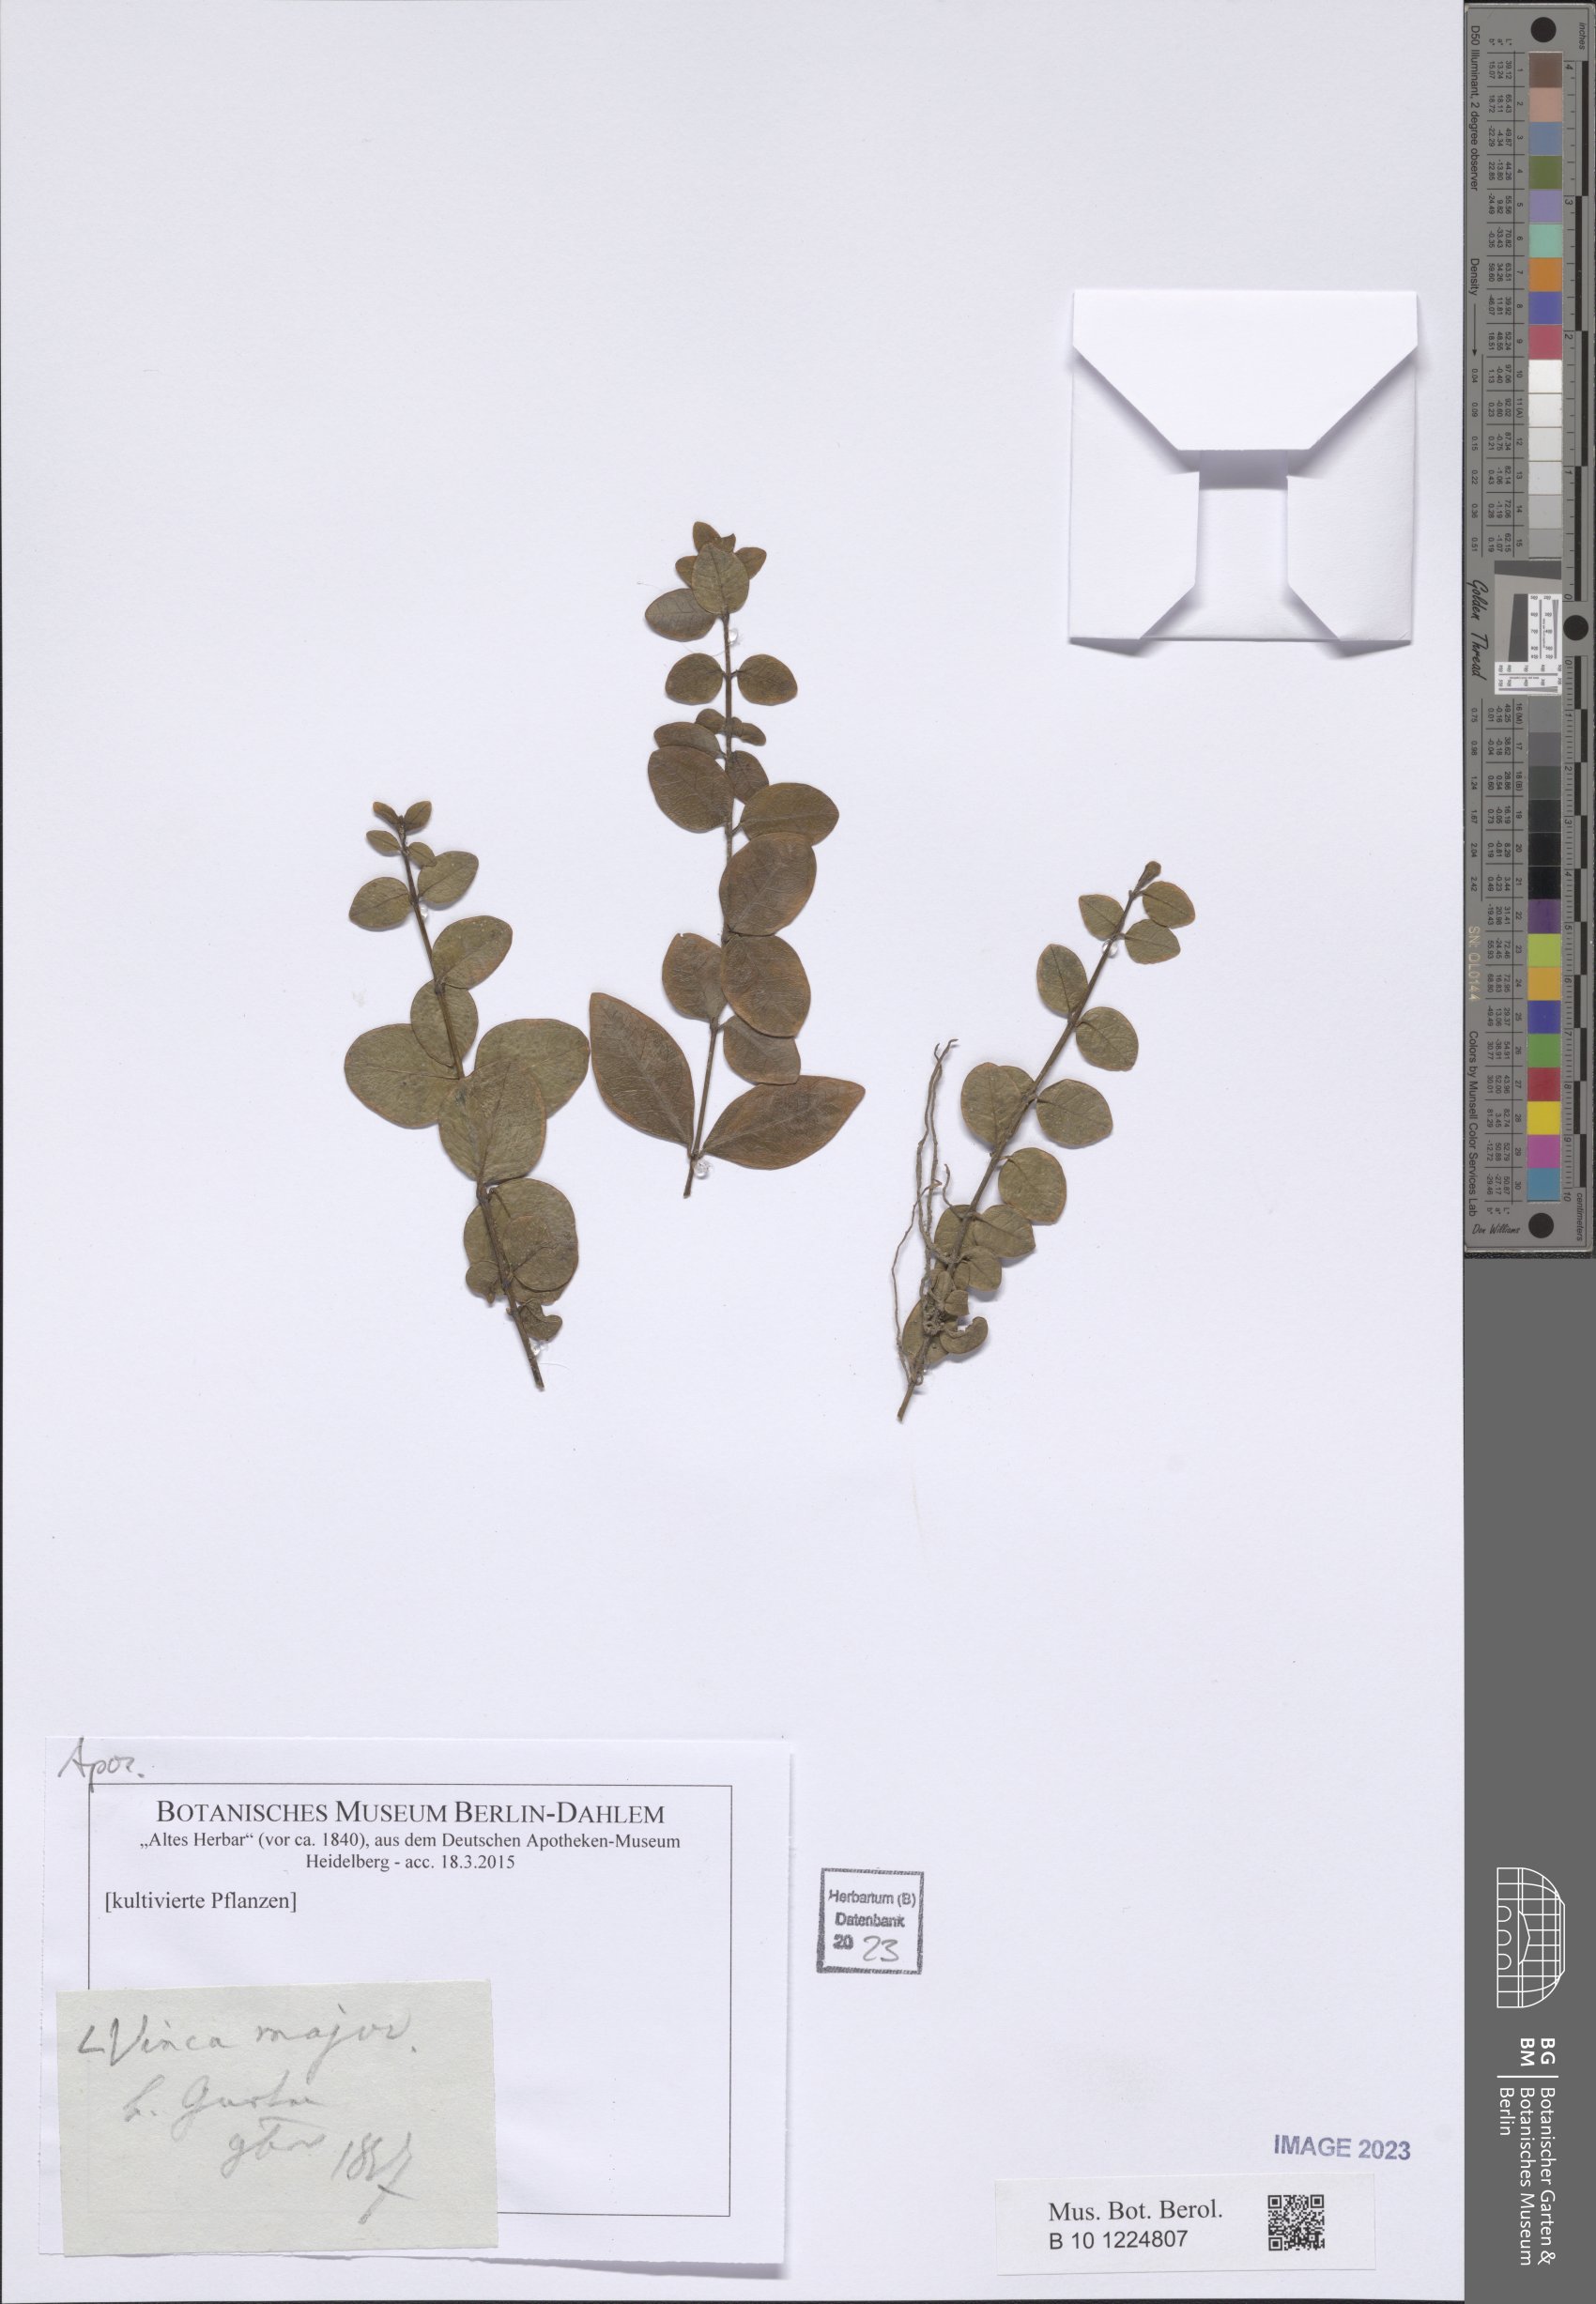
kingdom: Plantae
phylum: Tracheophyta
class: Magnoliopsida
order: Gentianales
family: Apocynaceae
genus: Vinca
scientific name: Vinca major
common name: Greater periwinkle
